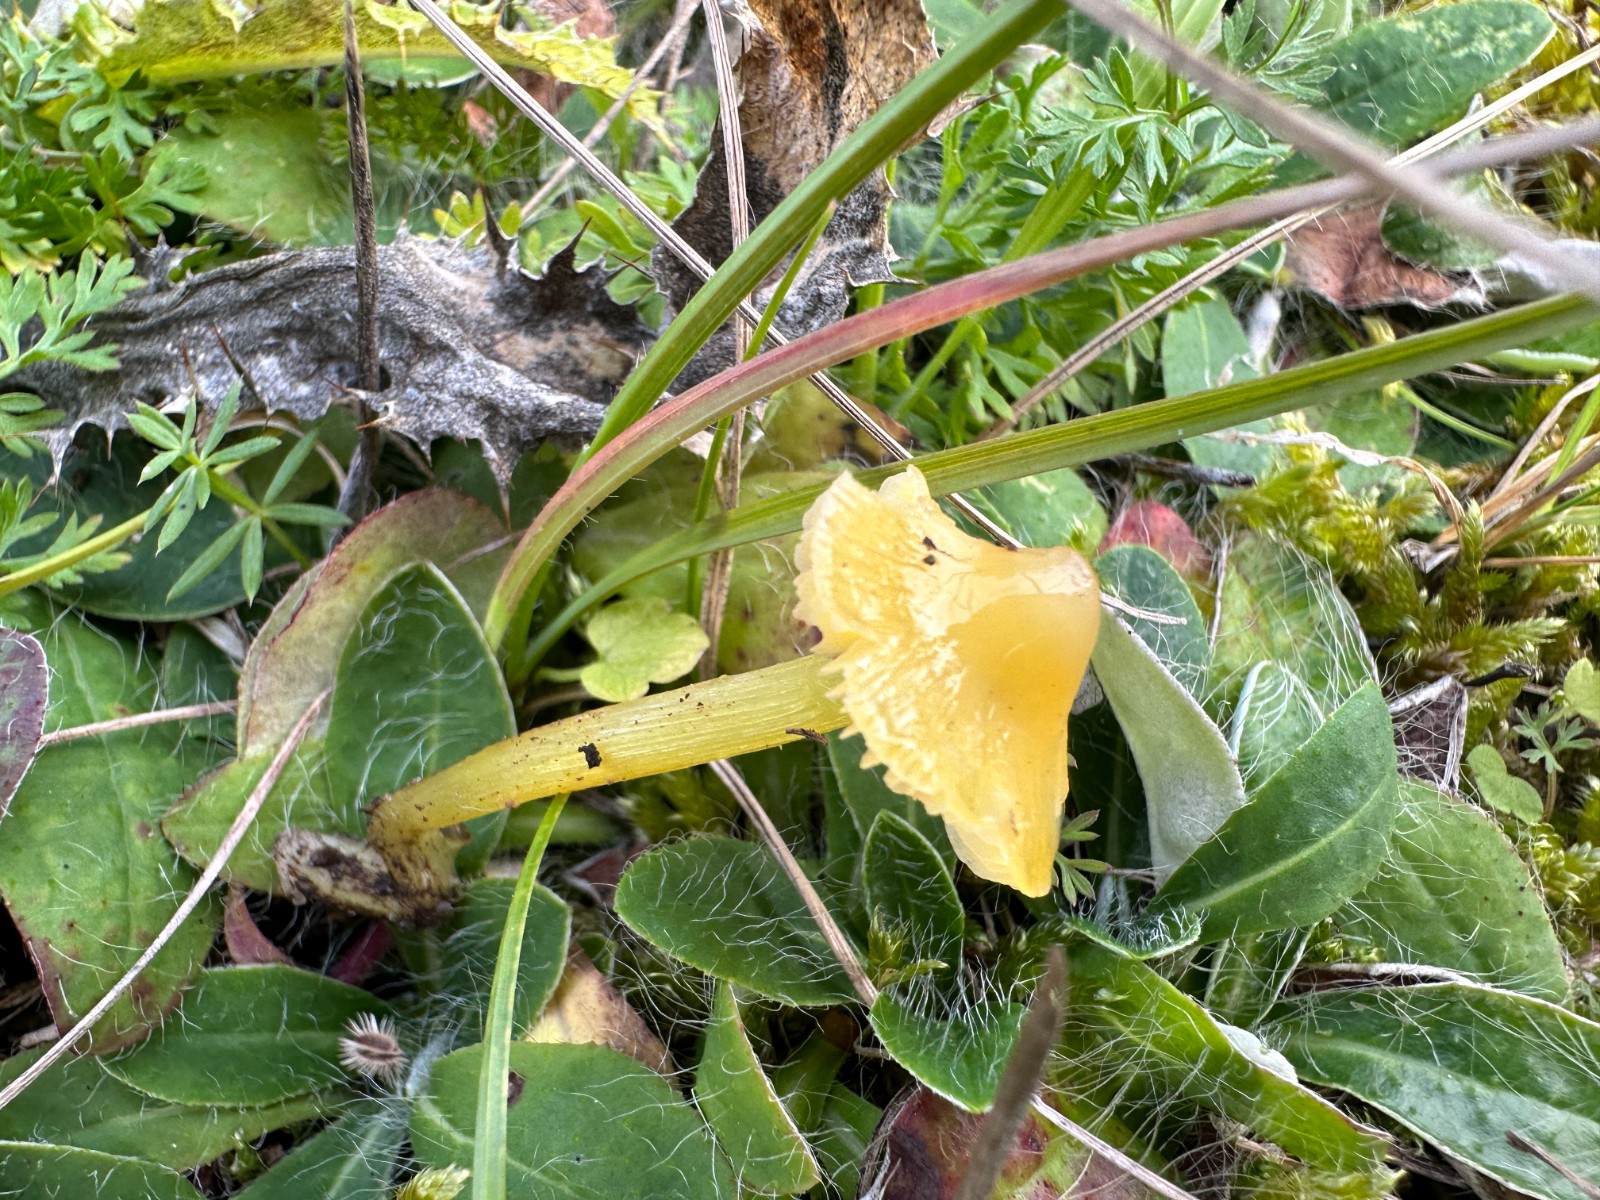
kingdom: Fungi
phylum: Basidiomycota
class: Agaricomycetes
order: Agaricales
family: Hygrophoraceae
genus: Hygrocybe
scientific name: Hygrocybe acutoconica
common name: spidspuklet vokshat
